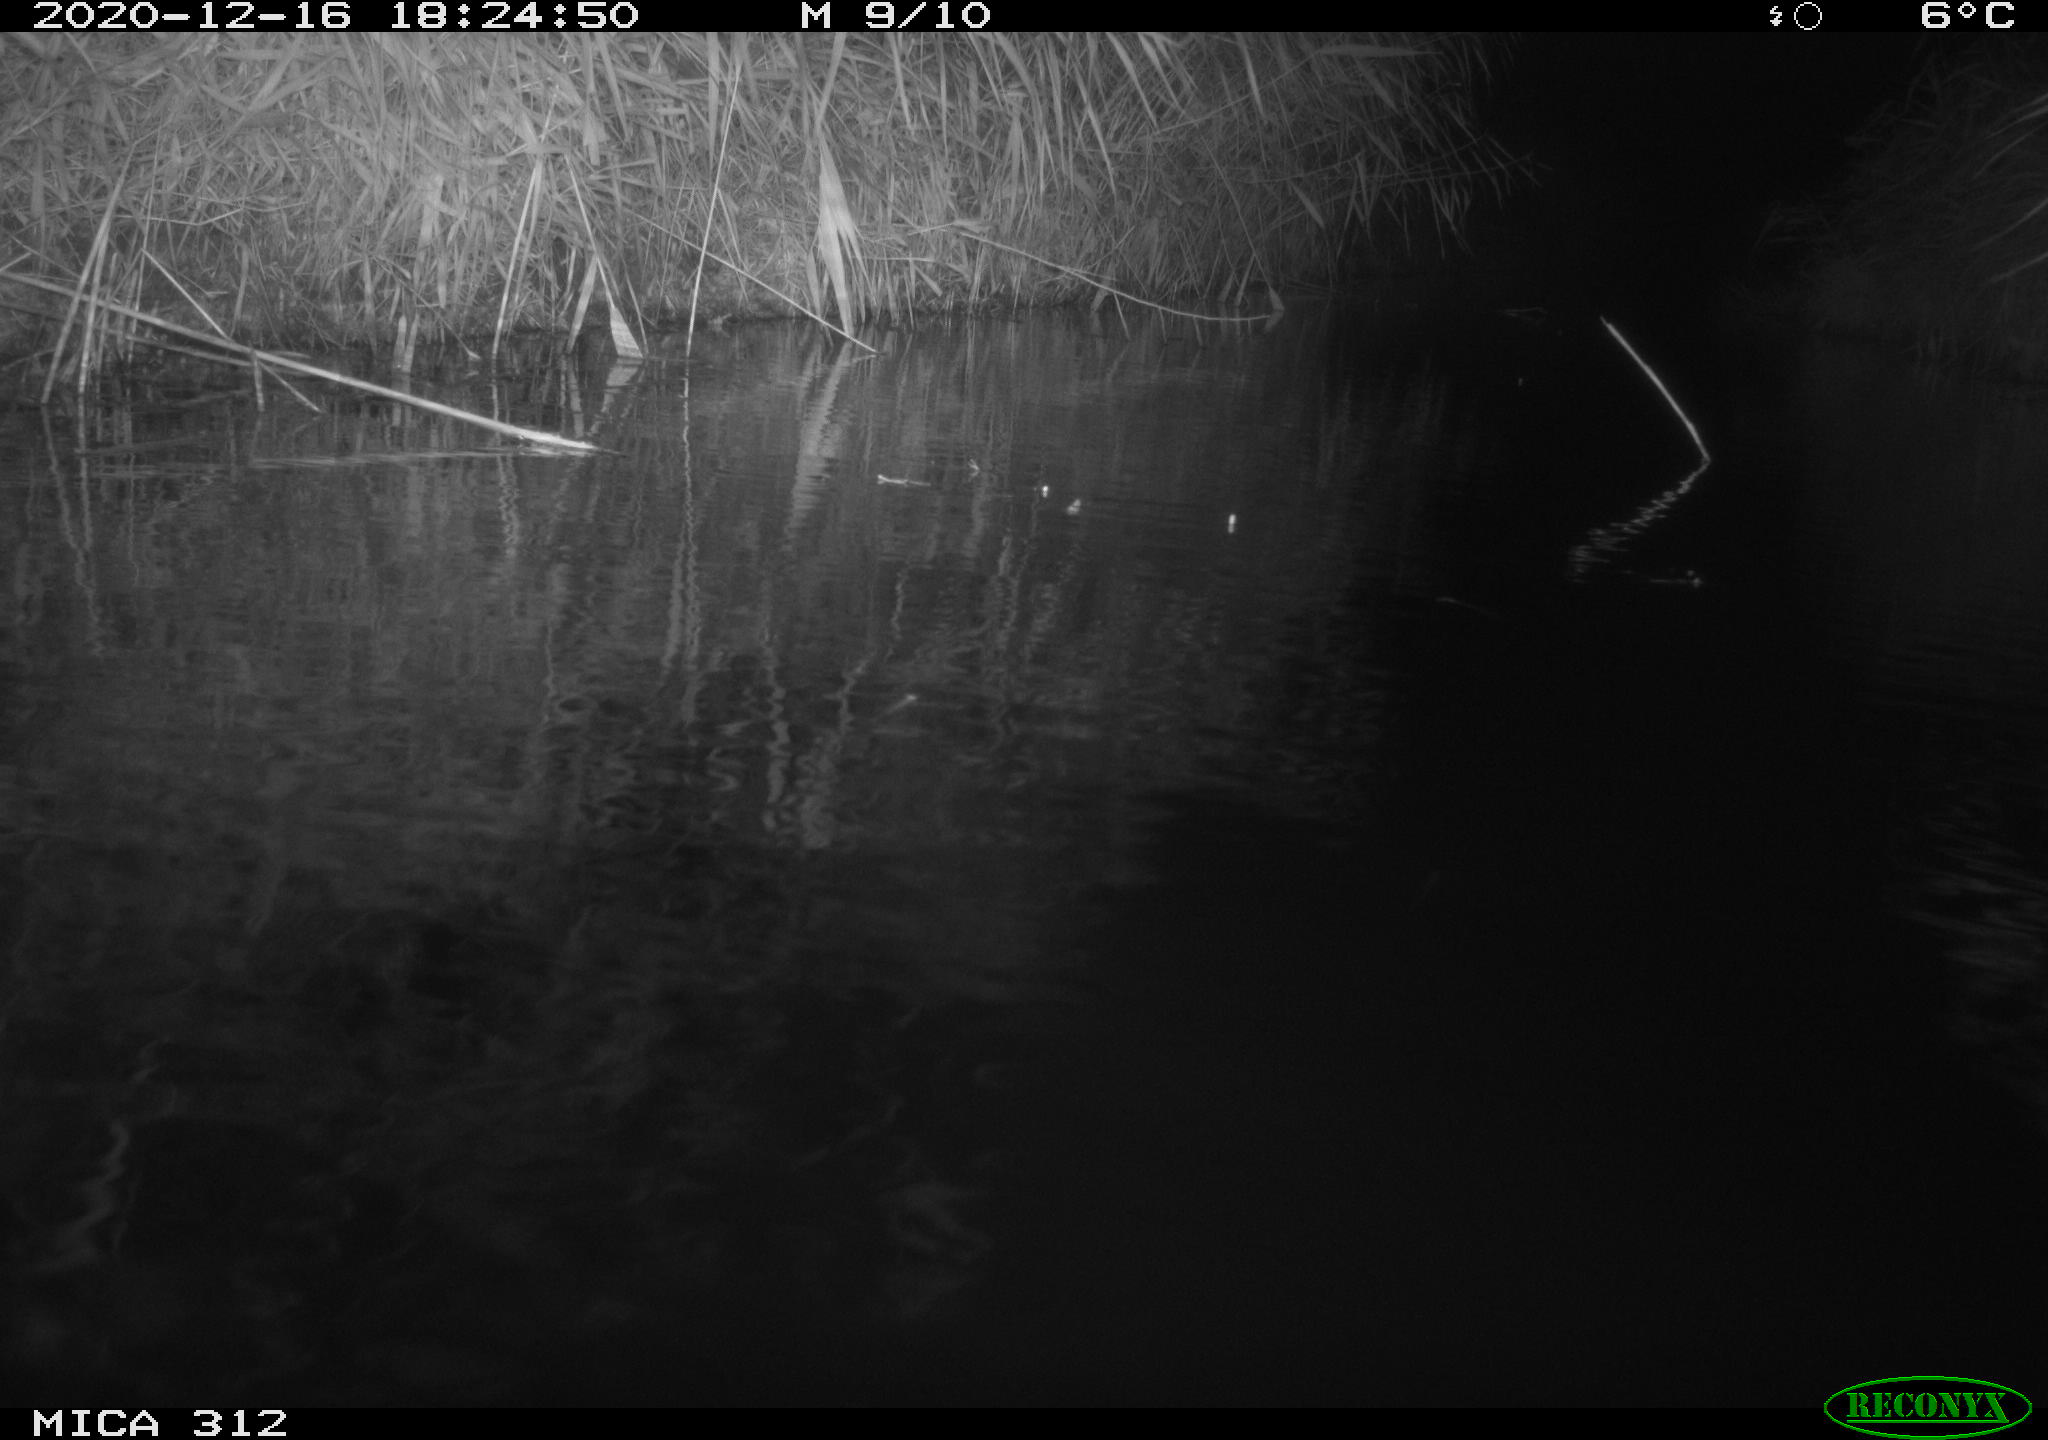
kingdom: Animalia
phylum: Chordata
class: Aves
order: Gruiformes
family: Rallidae
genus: Gallinula
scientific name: Gallinula chloropus
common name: Common moorhen
